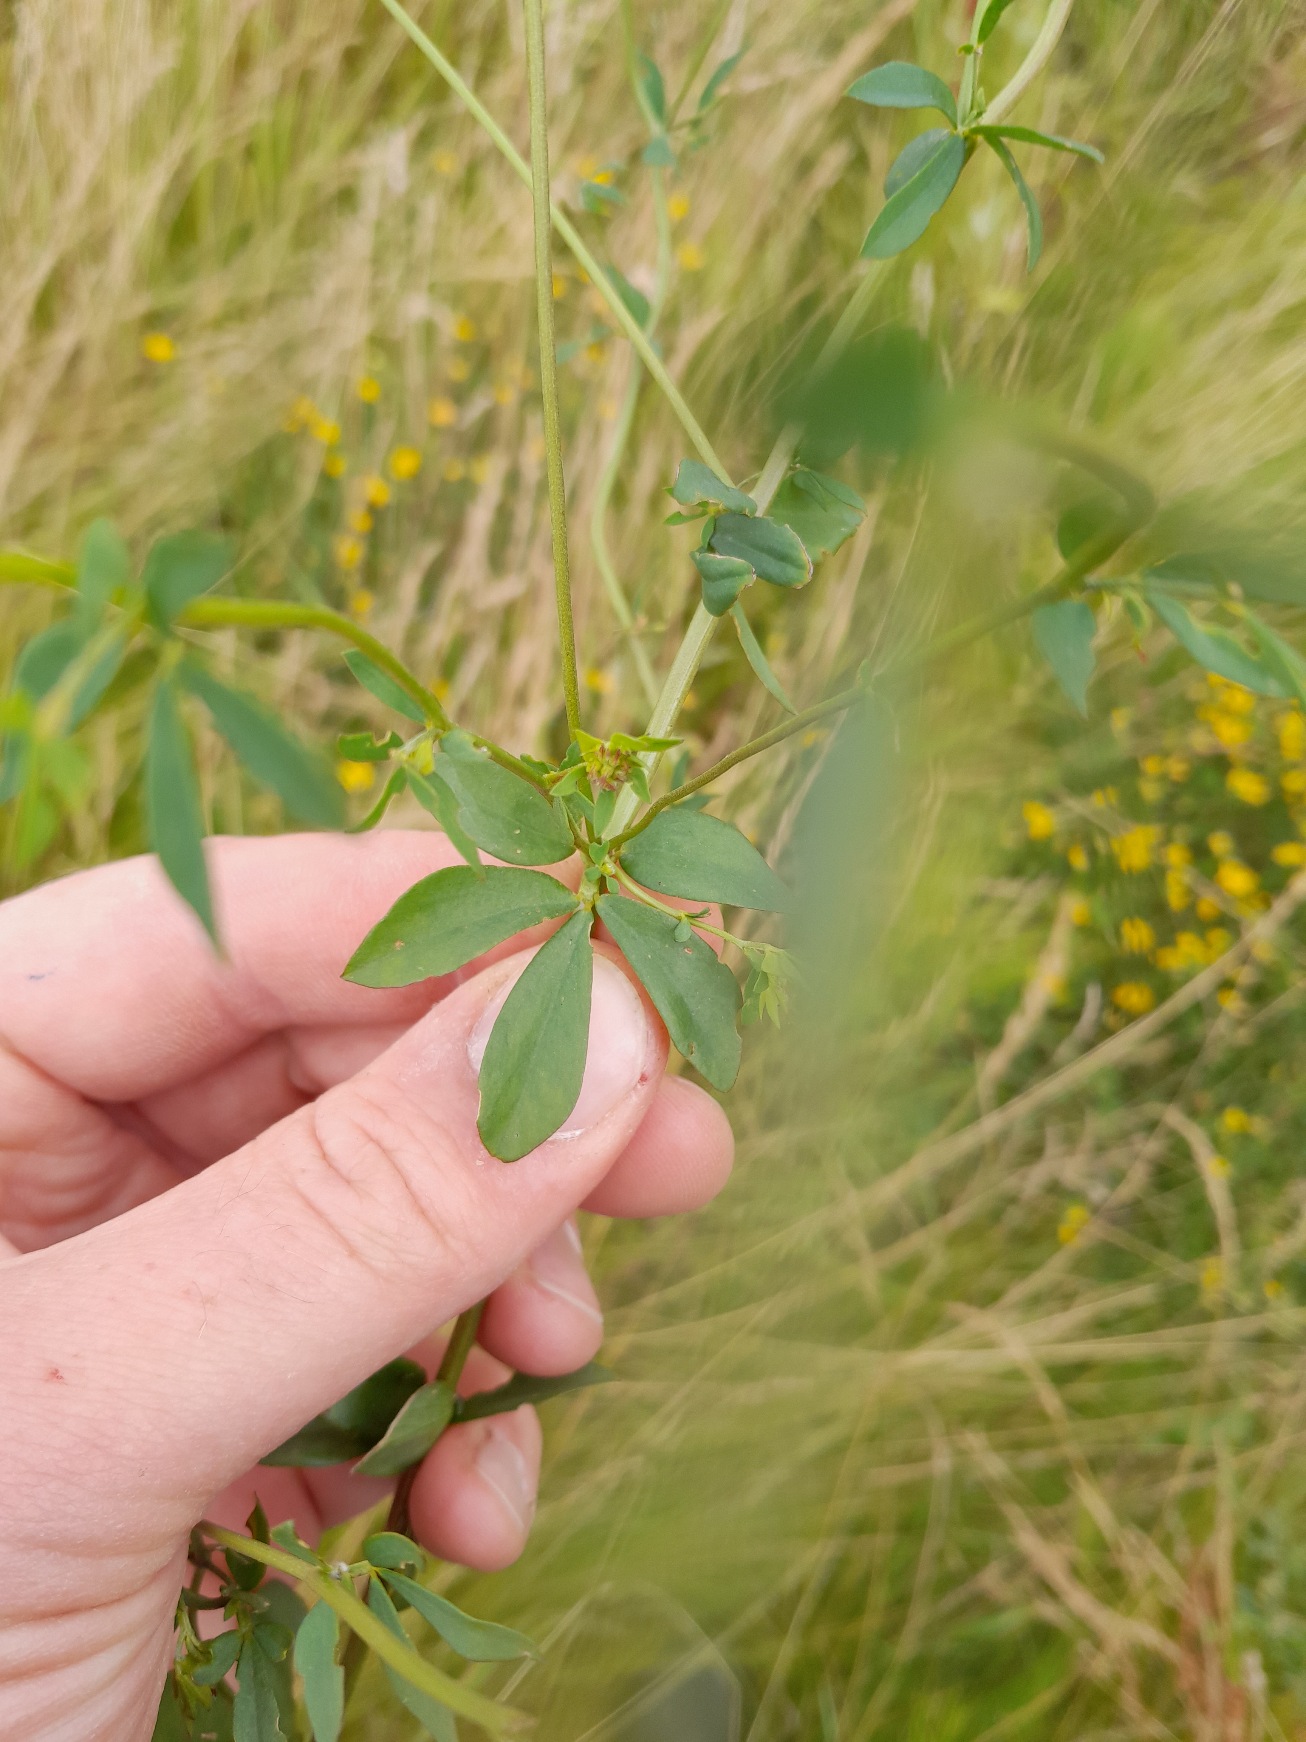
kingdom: Plantae
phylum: Tracheophyta
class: Magnoliopsida
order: Fabales
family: Fabaceae
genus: Lotus
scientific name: Lotus corniculatus
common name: Foder-kællingetand
